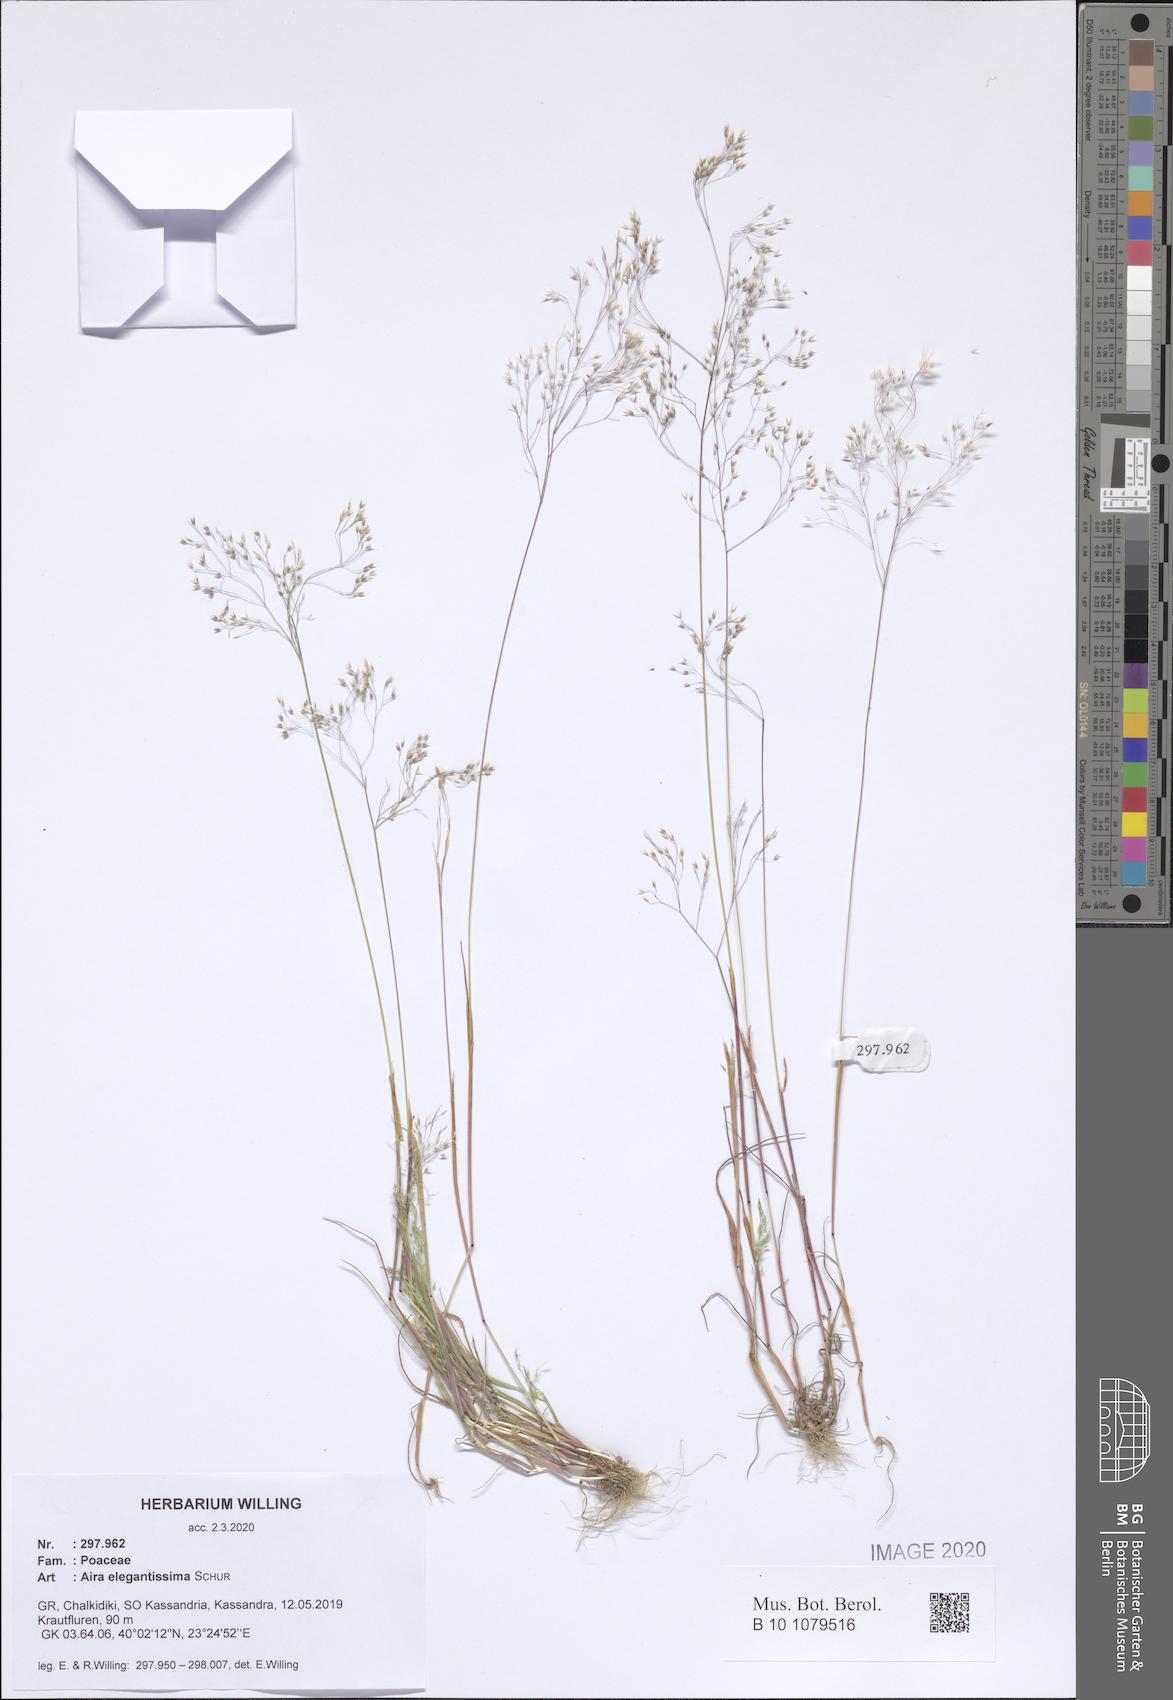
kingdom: Plantae
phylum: Tracheophyta
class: Liliopsida
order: Poales
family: Poaceae
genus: Aira
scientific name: Aira elegans
